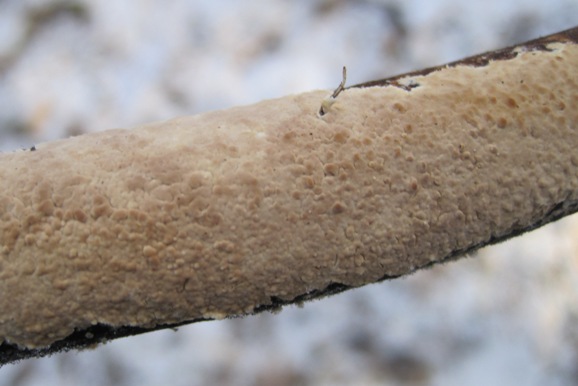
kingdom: Fungi
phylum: Basidiomycota
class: Agaricomycetes
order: Agaricales
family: Physalacriaceae
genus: Cylindrobasidium
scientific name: Cylindrobasidium evolvens
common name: sprækkehinde
